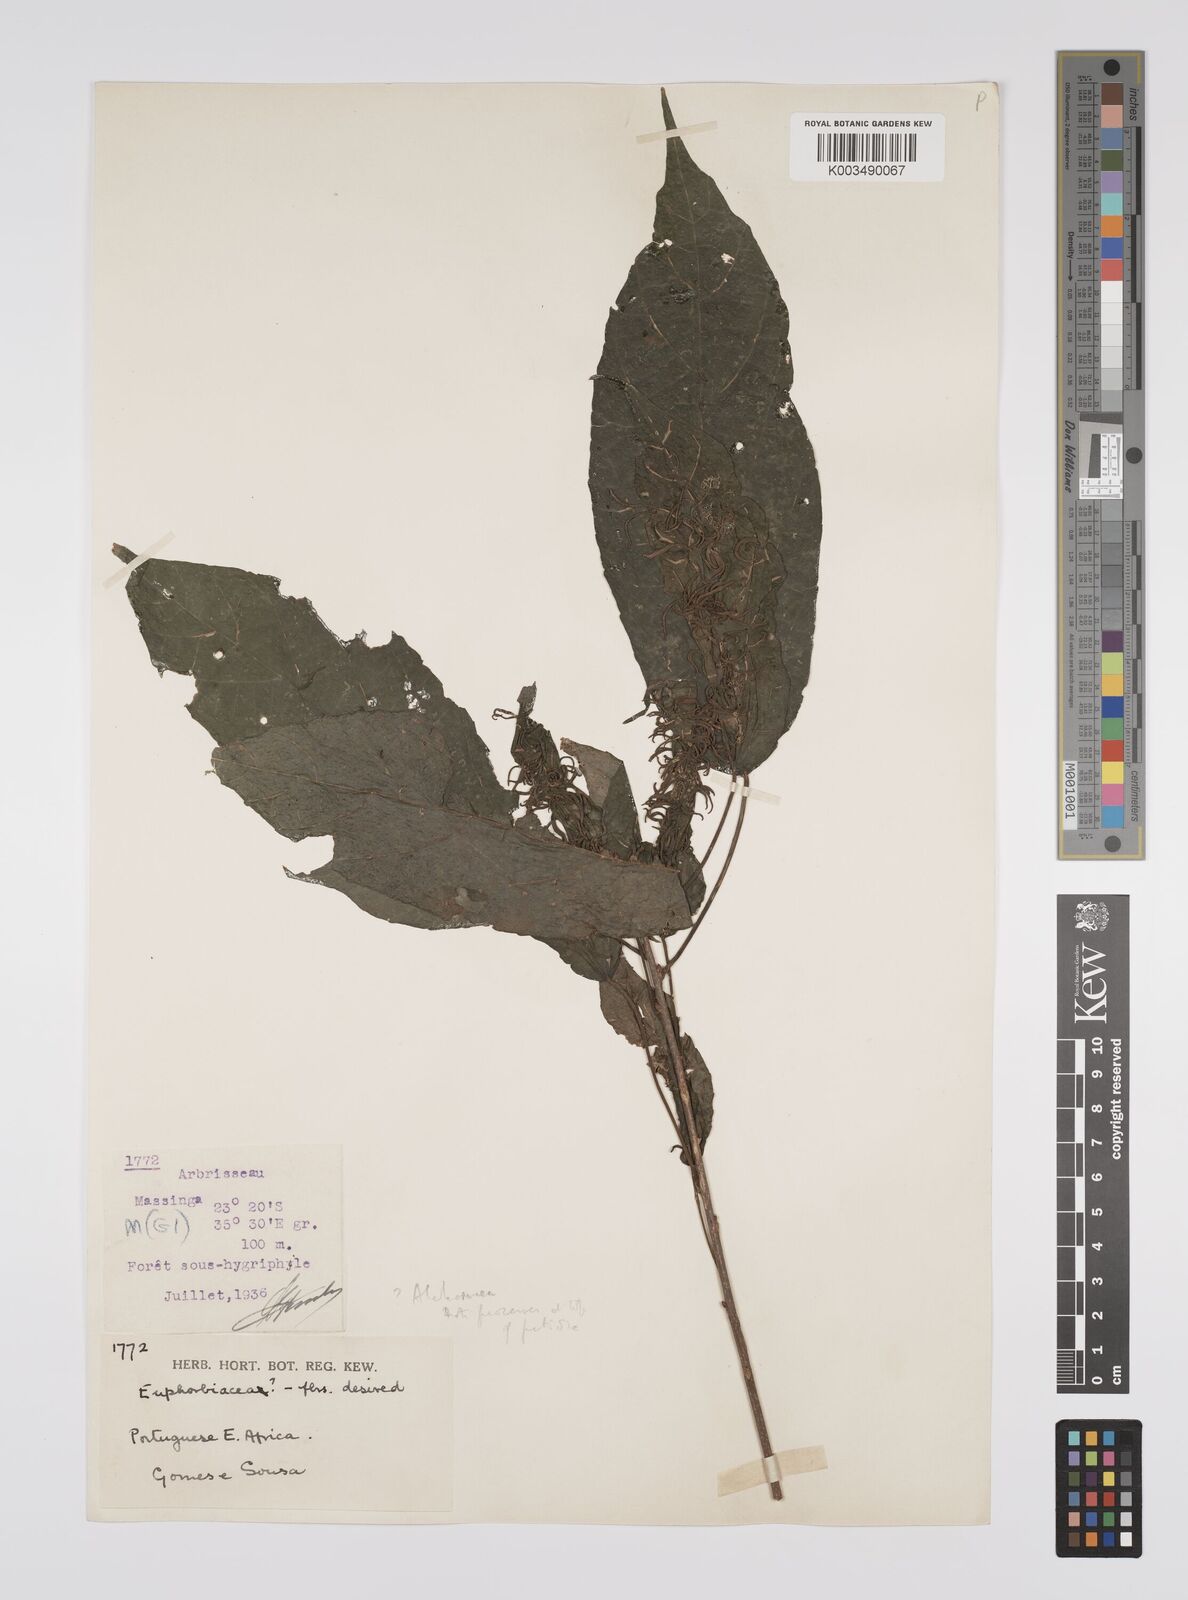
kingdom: Plantae
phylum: Tracheophyta
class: Magnoliopsida
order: Malpighiales
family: Euphorbiaceae
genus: Alchornea
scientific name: Alchornea
